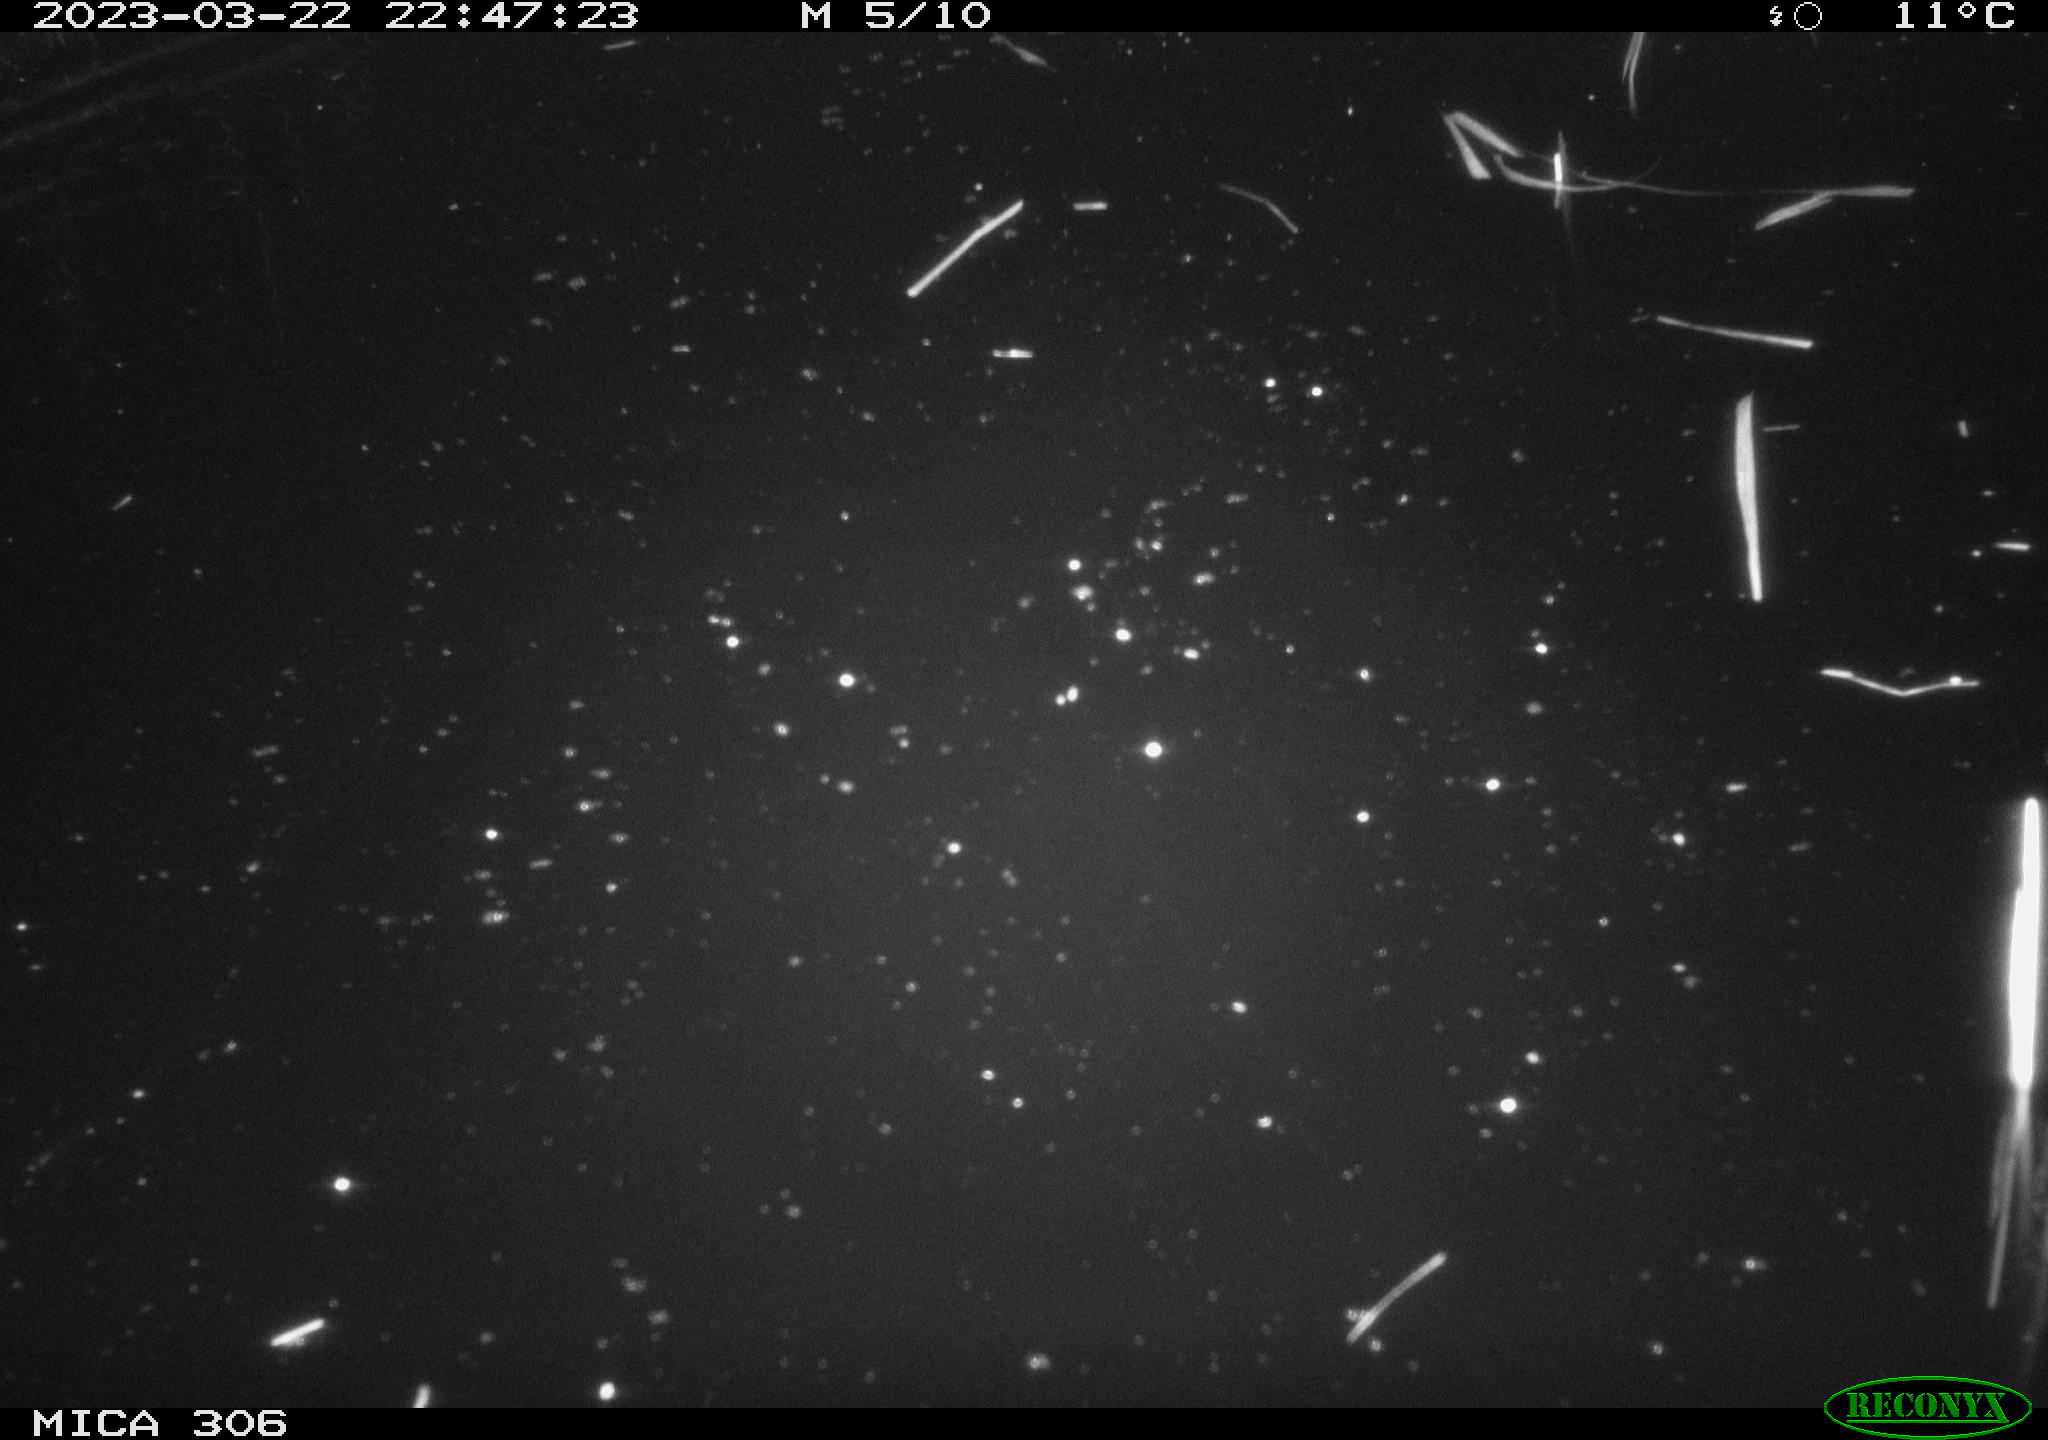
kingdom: Animalia
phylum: Chordata
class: Aves
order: Anseriformes
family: Anatidae
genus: Anas
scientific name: Anas
